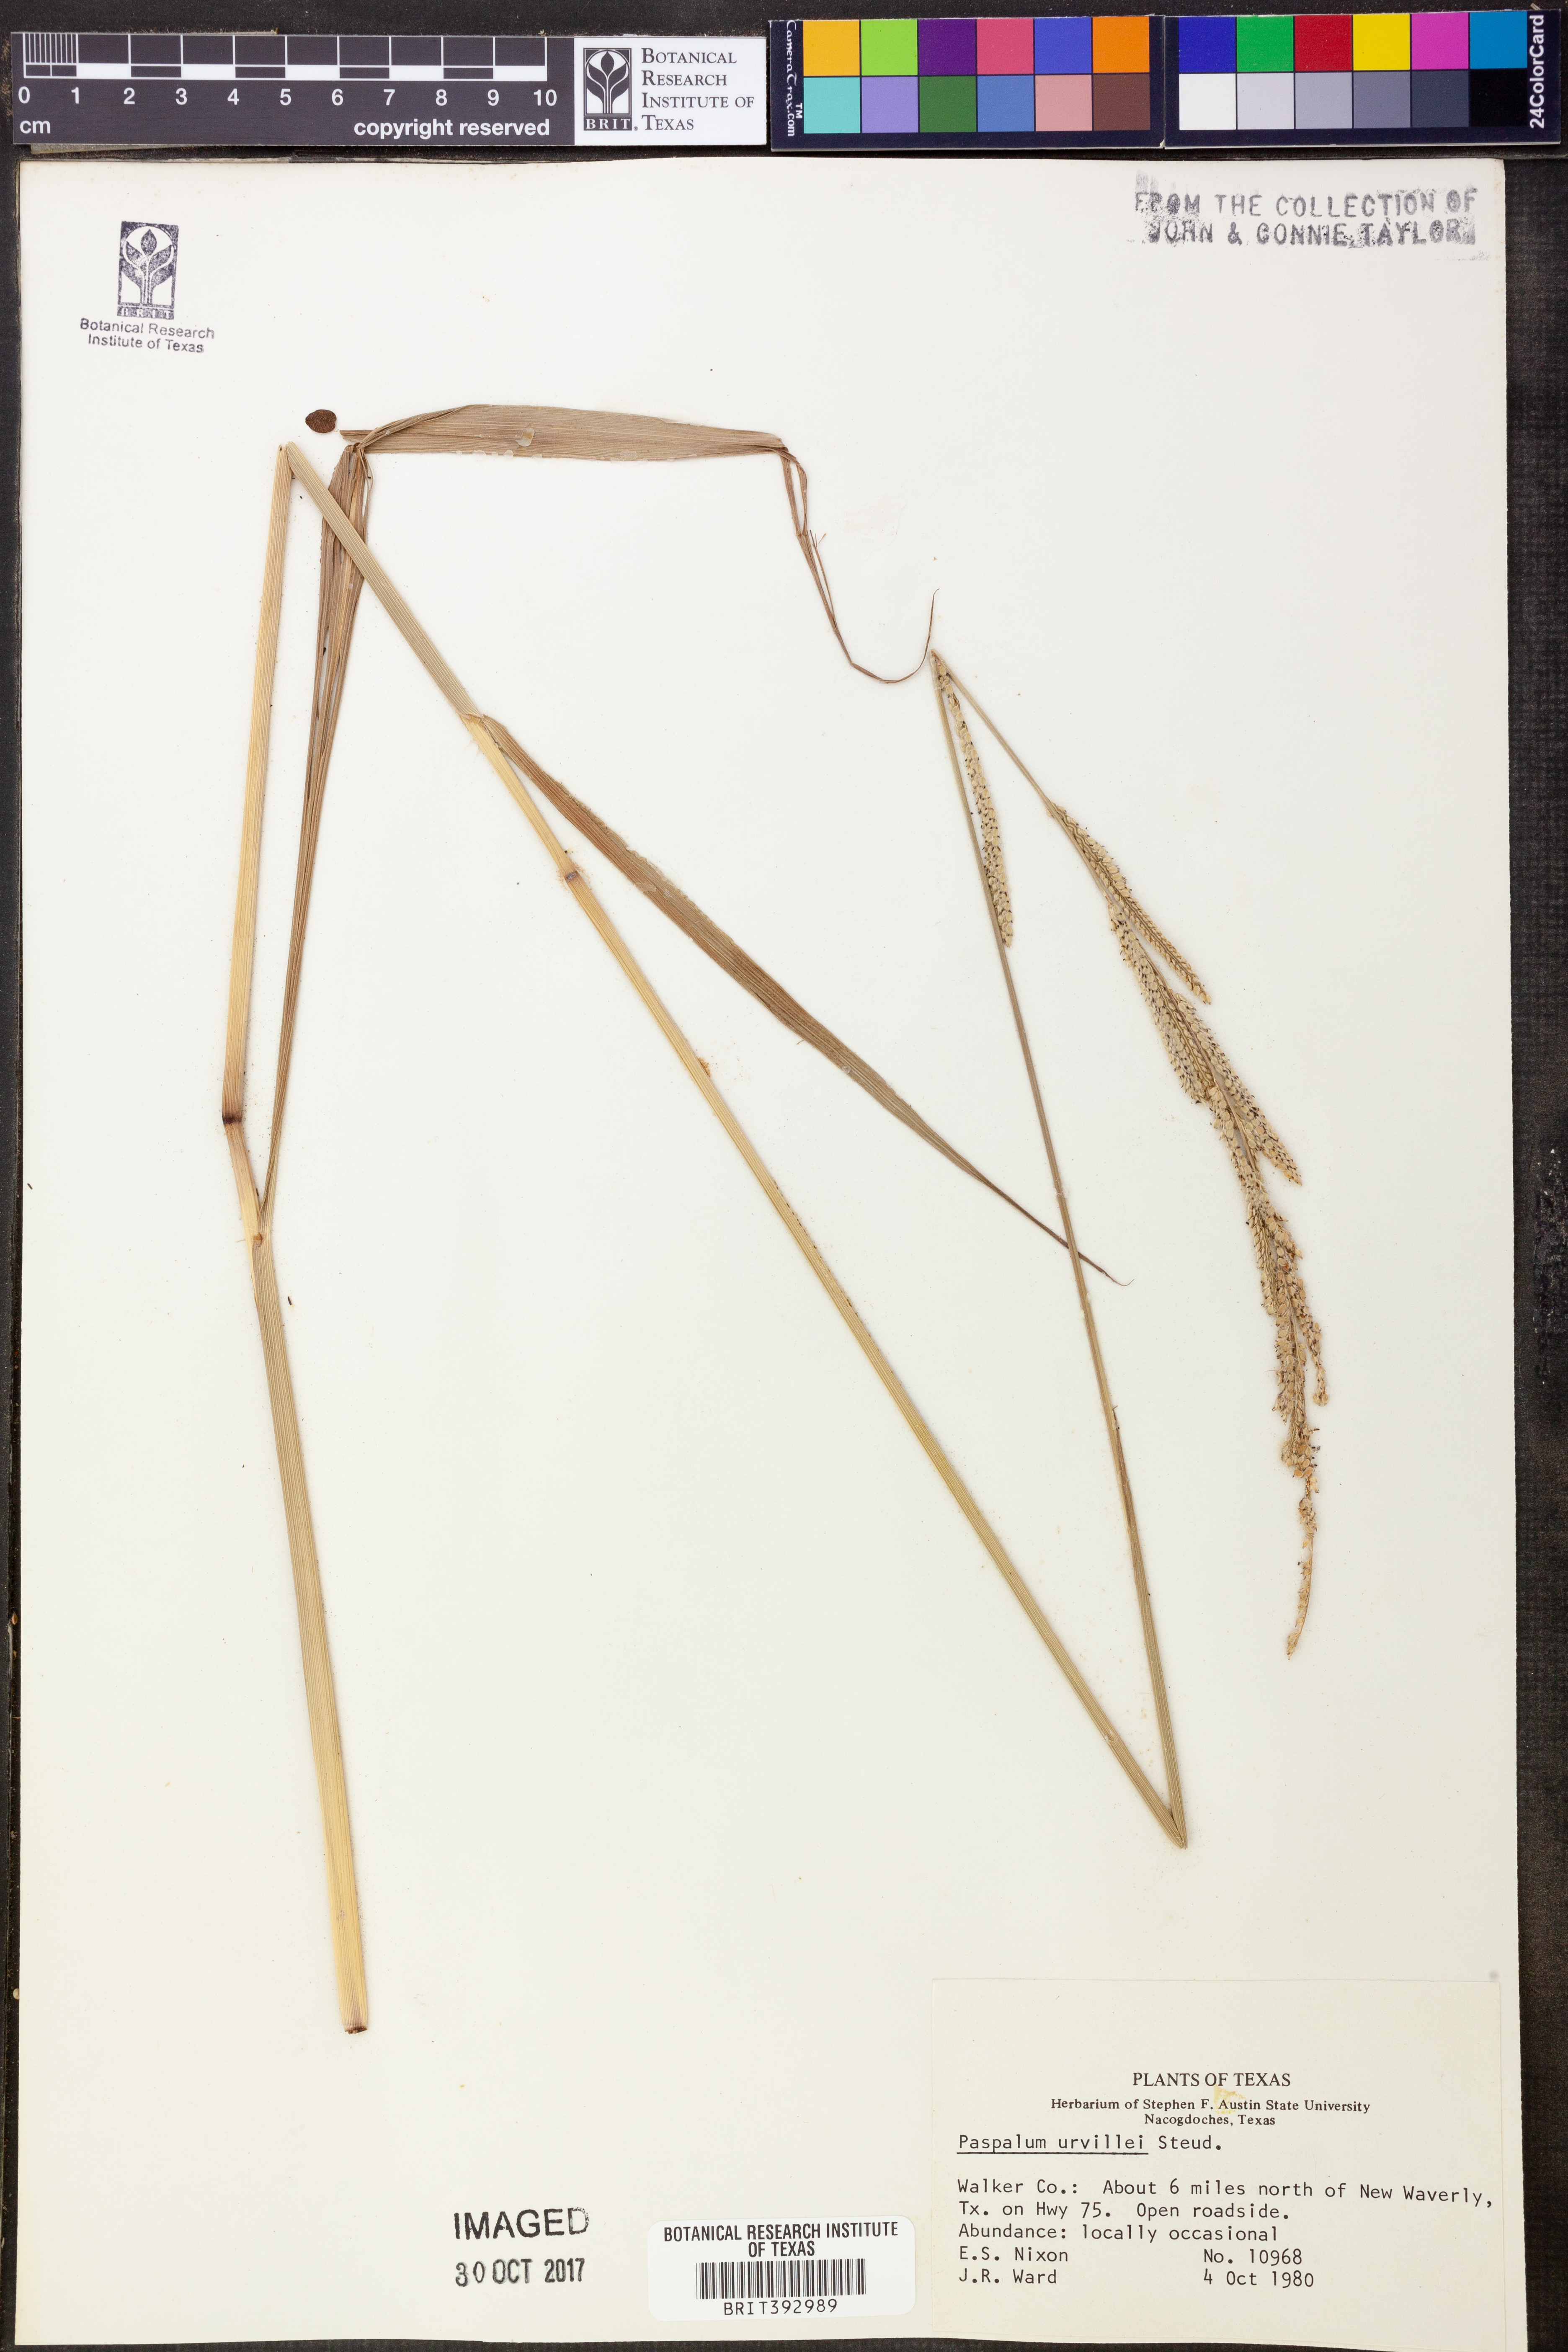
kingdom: Plantae
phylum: Tracheophyta
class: Liliopsida
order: Poales
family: Poaceae
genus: Paspalum
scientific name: Paspalum urvillei
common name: Vasey's grass
